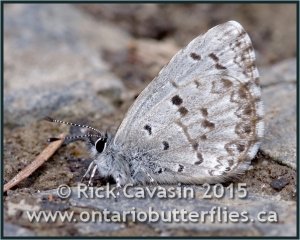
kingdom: Animalia
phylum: Arthropoda
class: Insecta
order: Lepidoptera
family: Lycaenidae
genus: Celastrina
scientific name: Celastrina lucia
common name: Northern Spring Azure
